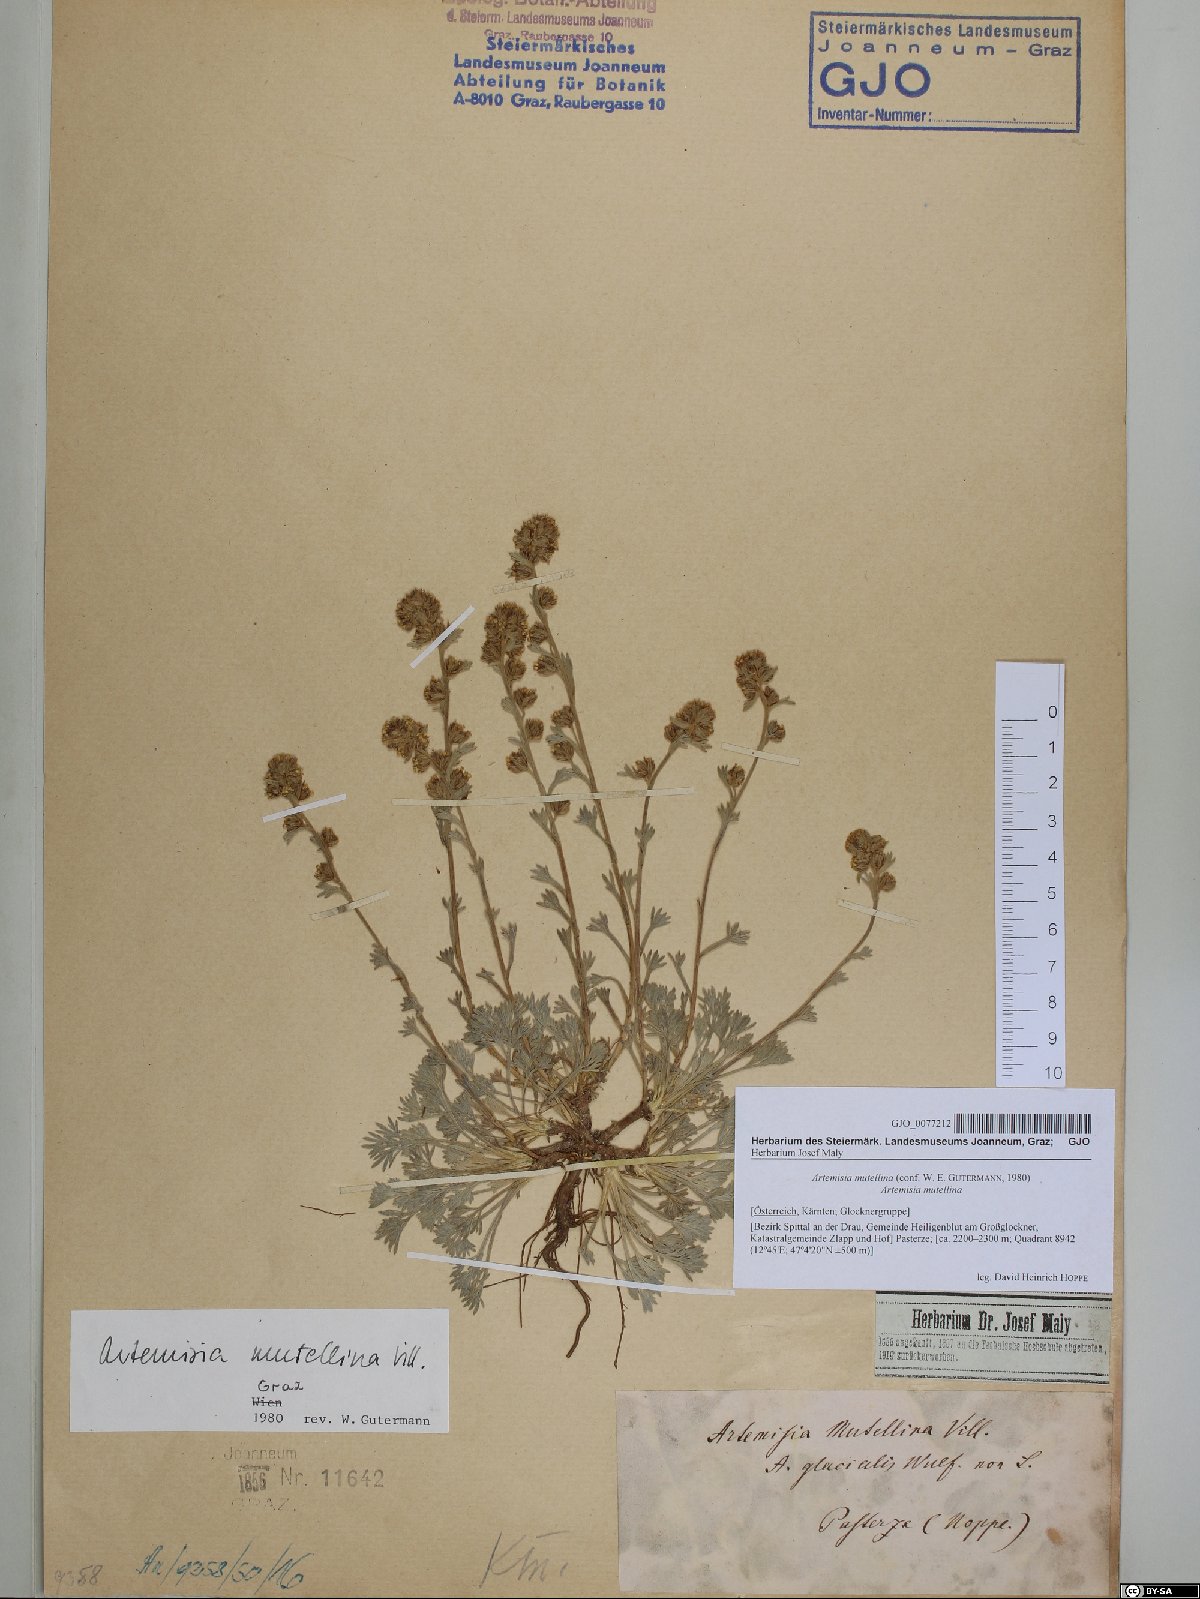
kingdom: Plantae
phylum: Tracheophyta
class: Magnoliopsida
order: Asterales
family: Asteraceae
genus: Artemisia
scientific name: Artemisia mutellina
